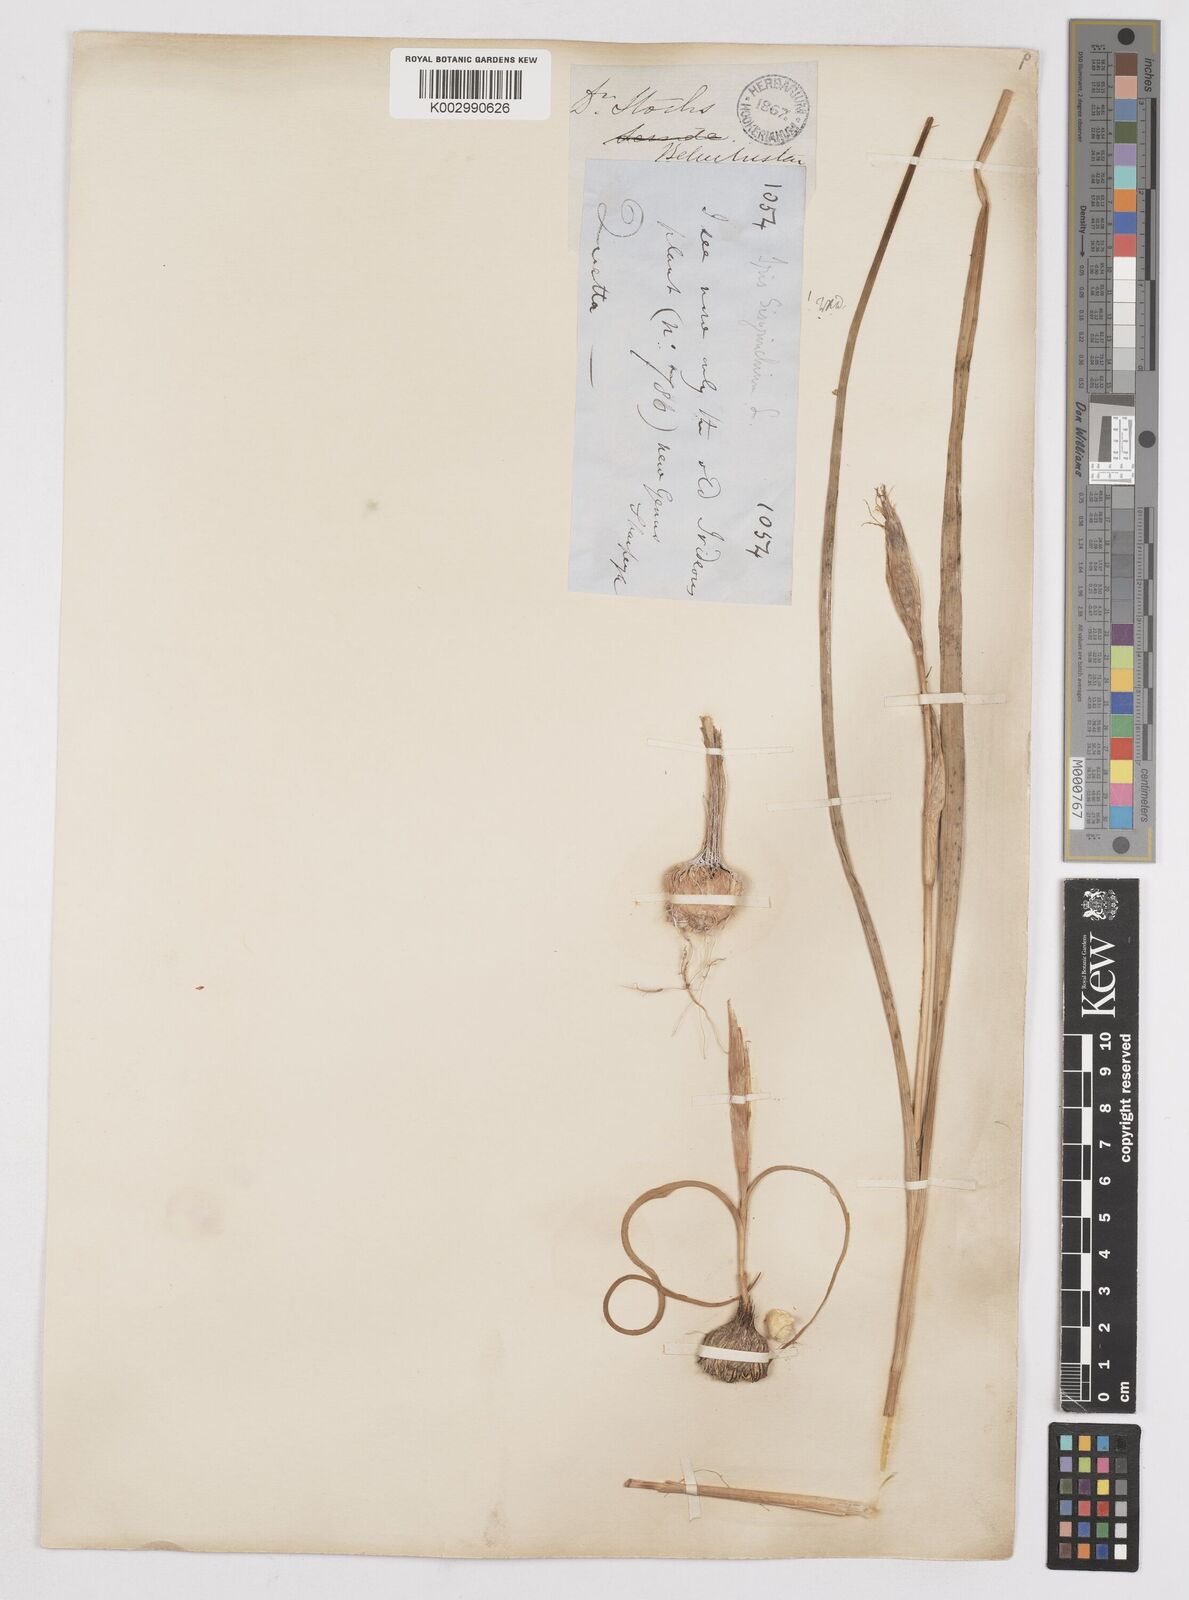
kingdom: Plantae
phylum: Tracheophyta
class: Liliopsida
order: Asparagales
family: Iridaceae
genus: Moraea
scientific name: Moraea sisyrinchium
